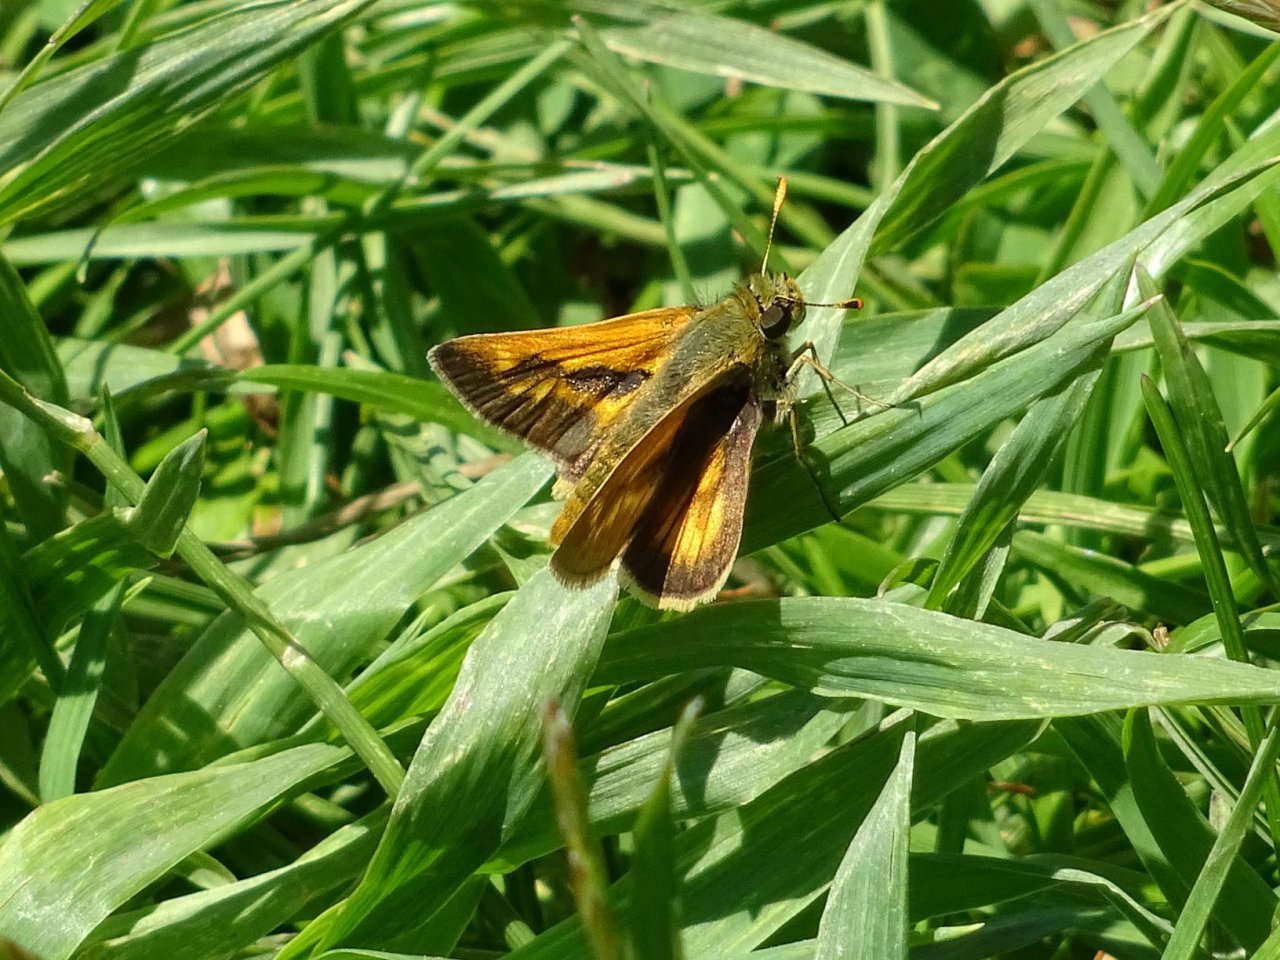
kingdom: Animalia
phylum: Arthropoda
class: Insecta
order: Lepidoptera
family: Hesperiidae
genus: Polites
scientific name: Polites
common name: Long Dash Skipper
